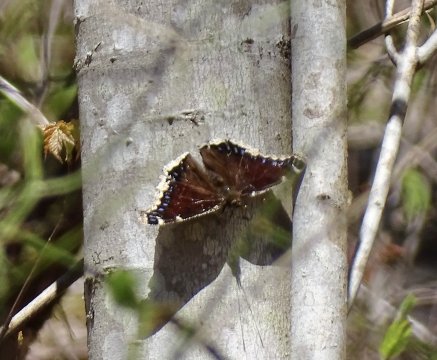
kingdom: Animalia
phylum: Arthropoda
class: Insecta
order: Lepidoptera
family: Nymphalidae
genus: Nymphalis
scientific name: Nymphalis antiopa
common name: Mourning Cloak
